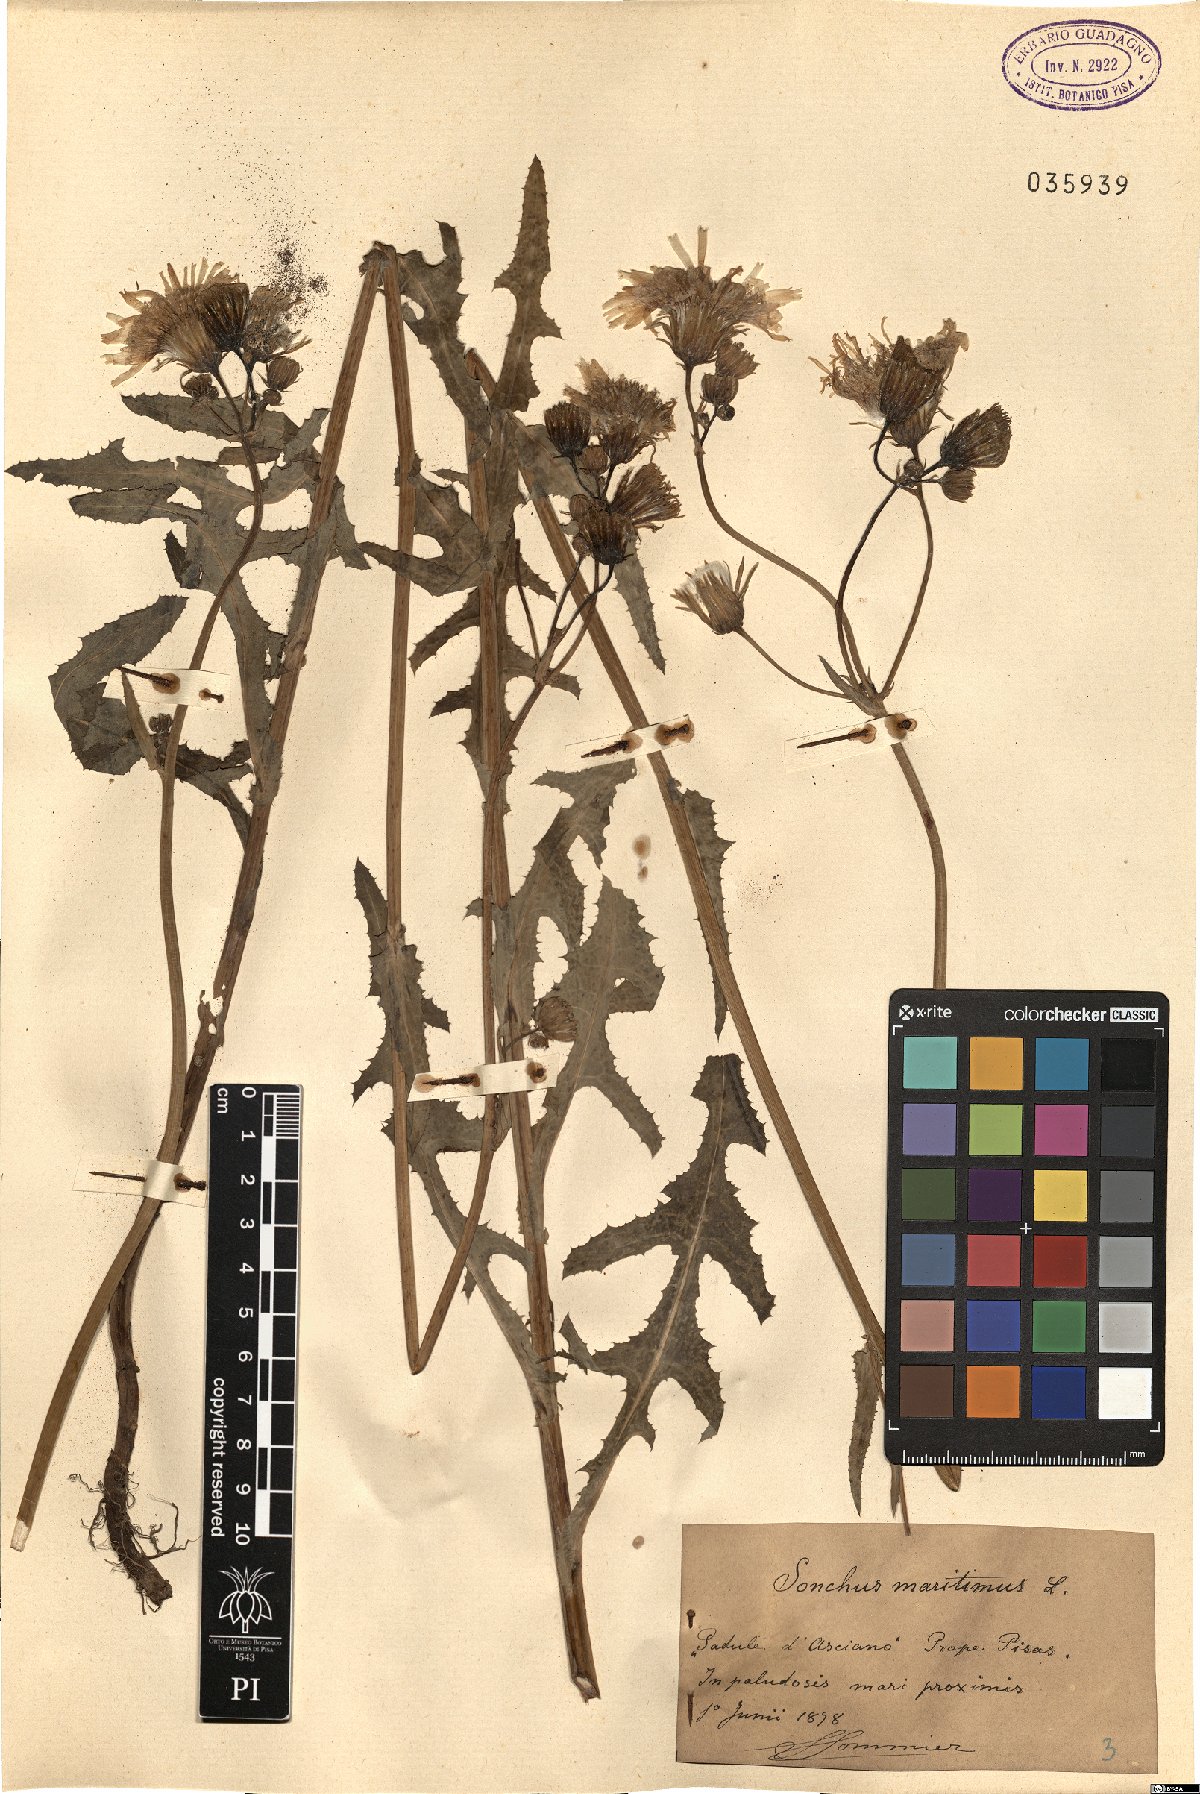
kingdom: Plantae
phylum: Tracheophyta
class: Magnoliopsida
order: Asterales
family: Asteraceae
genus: Sonchus
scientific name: Sonchus maritimus
